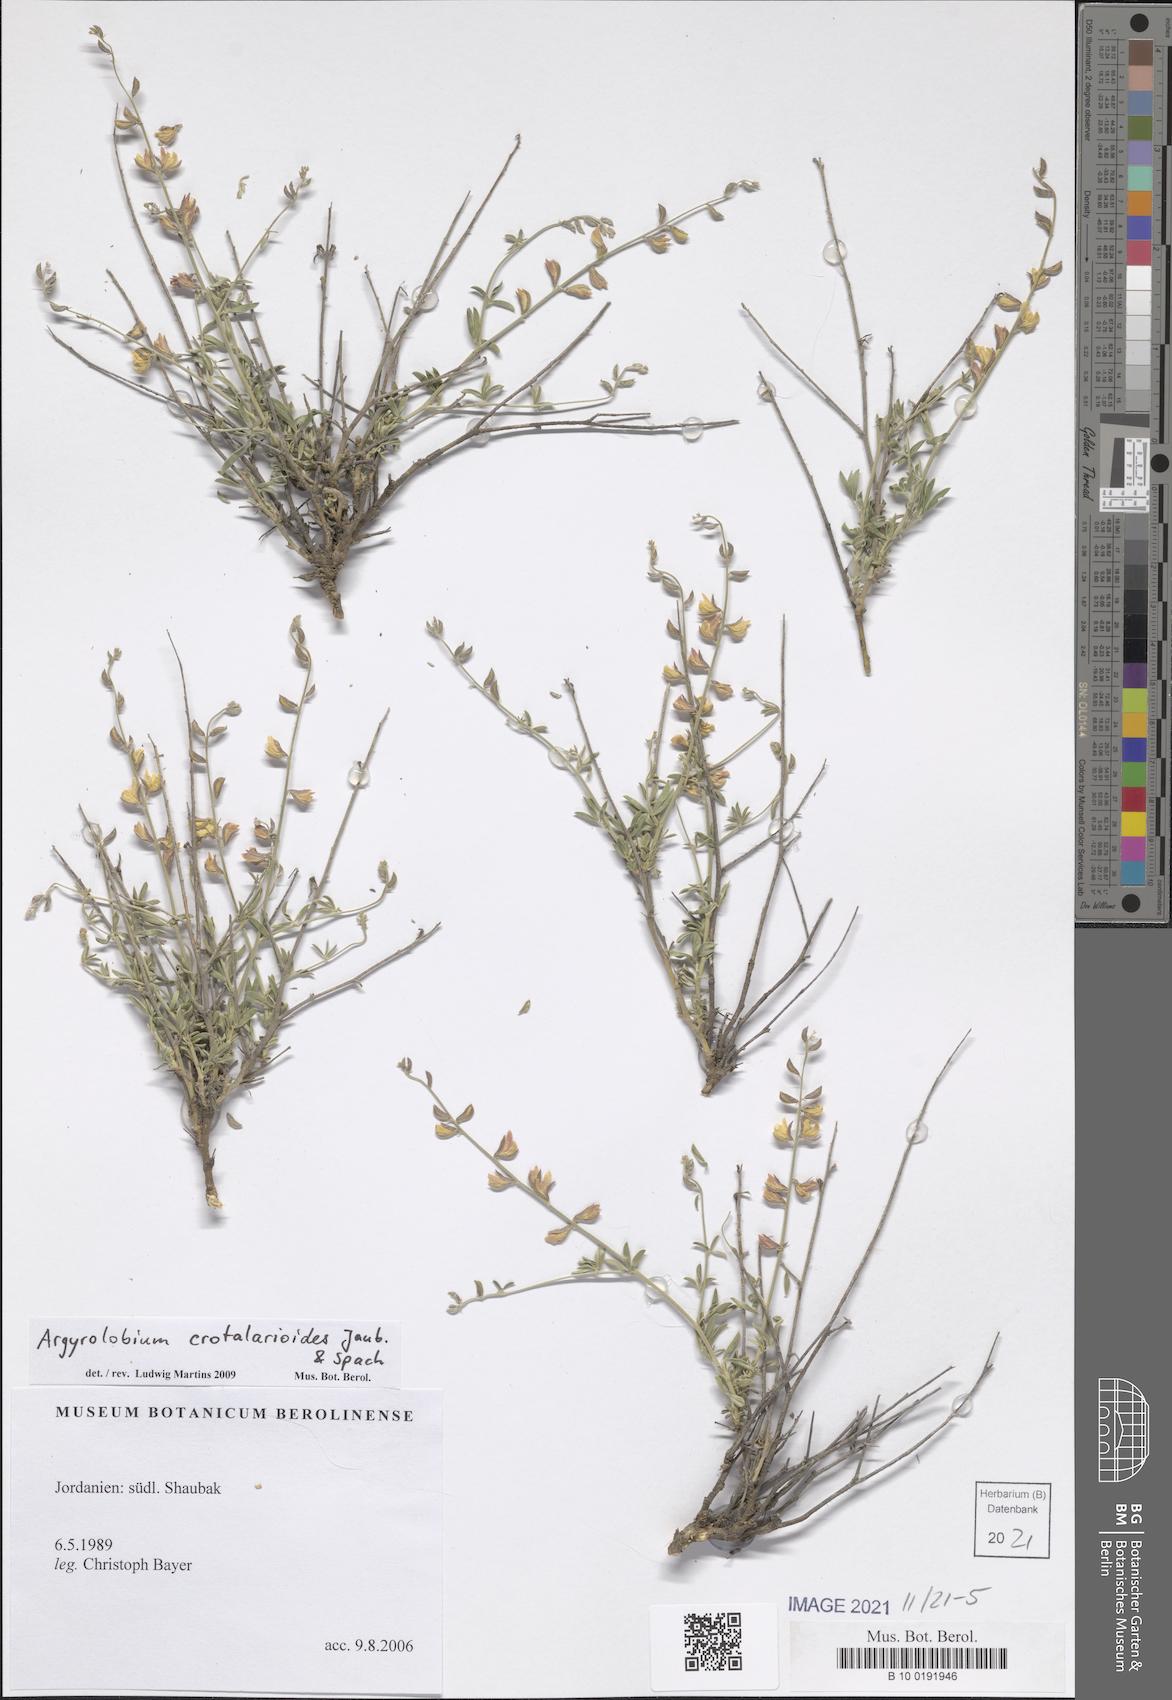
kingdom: Plantae
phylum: Tracheophyta
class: Magnoliopsida
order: Fabales
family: Fabaceae
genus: Argyrolobium
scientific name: Argyrolobium crotalarioides
